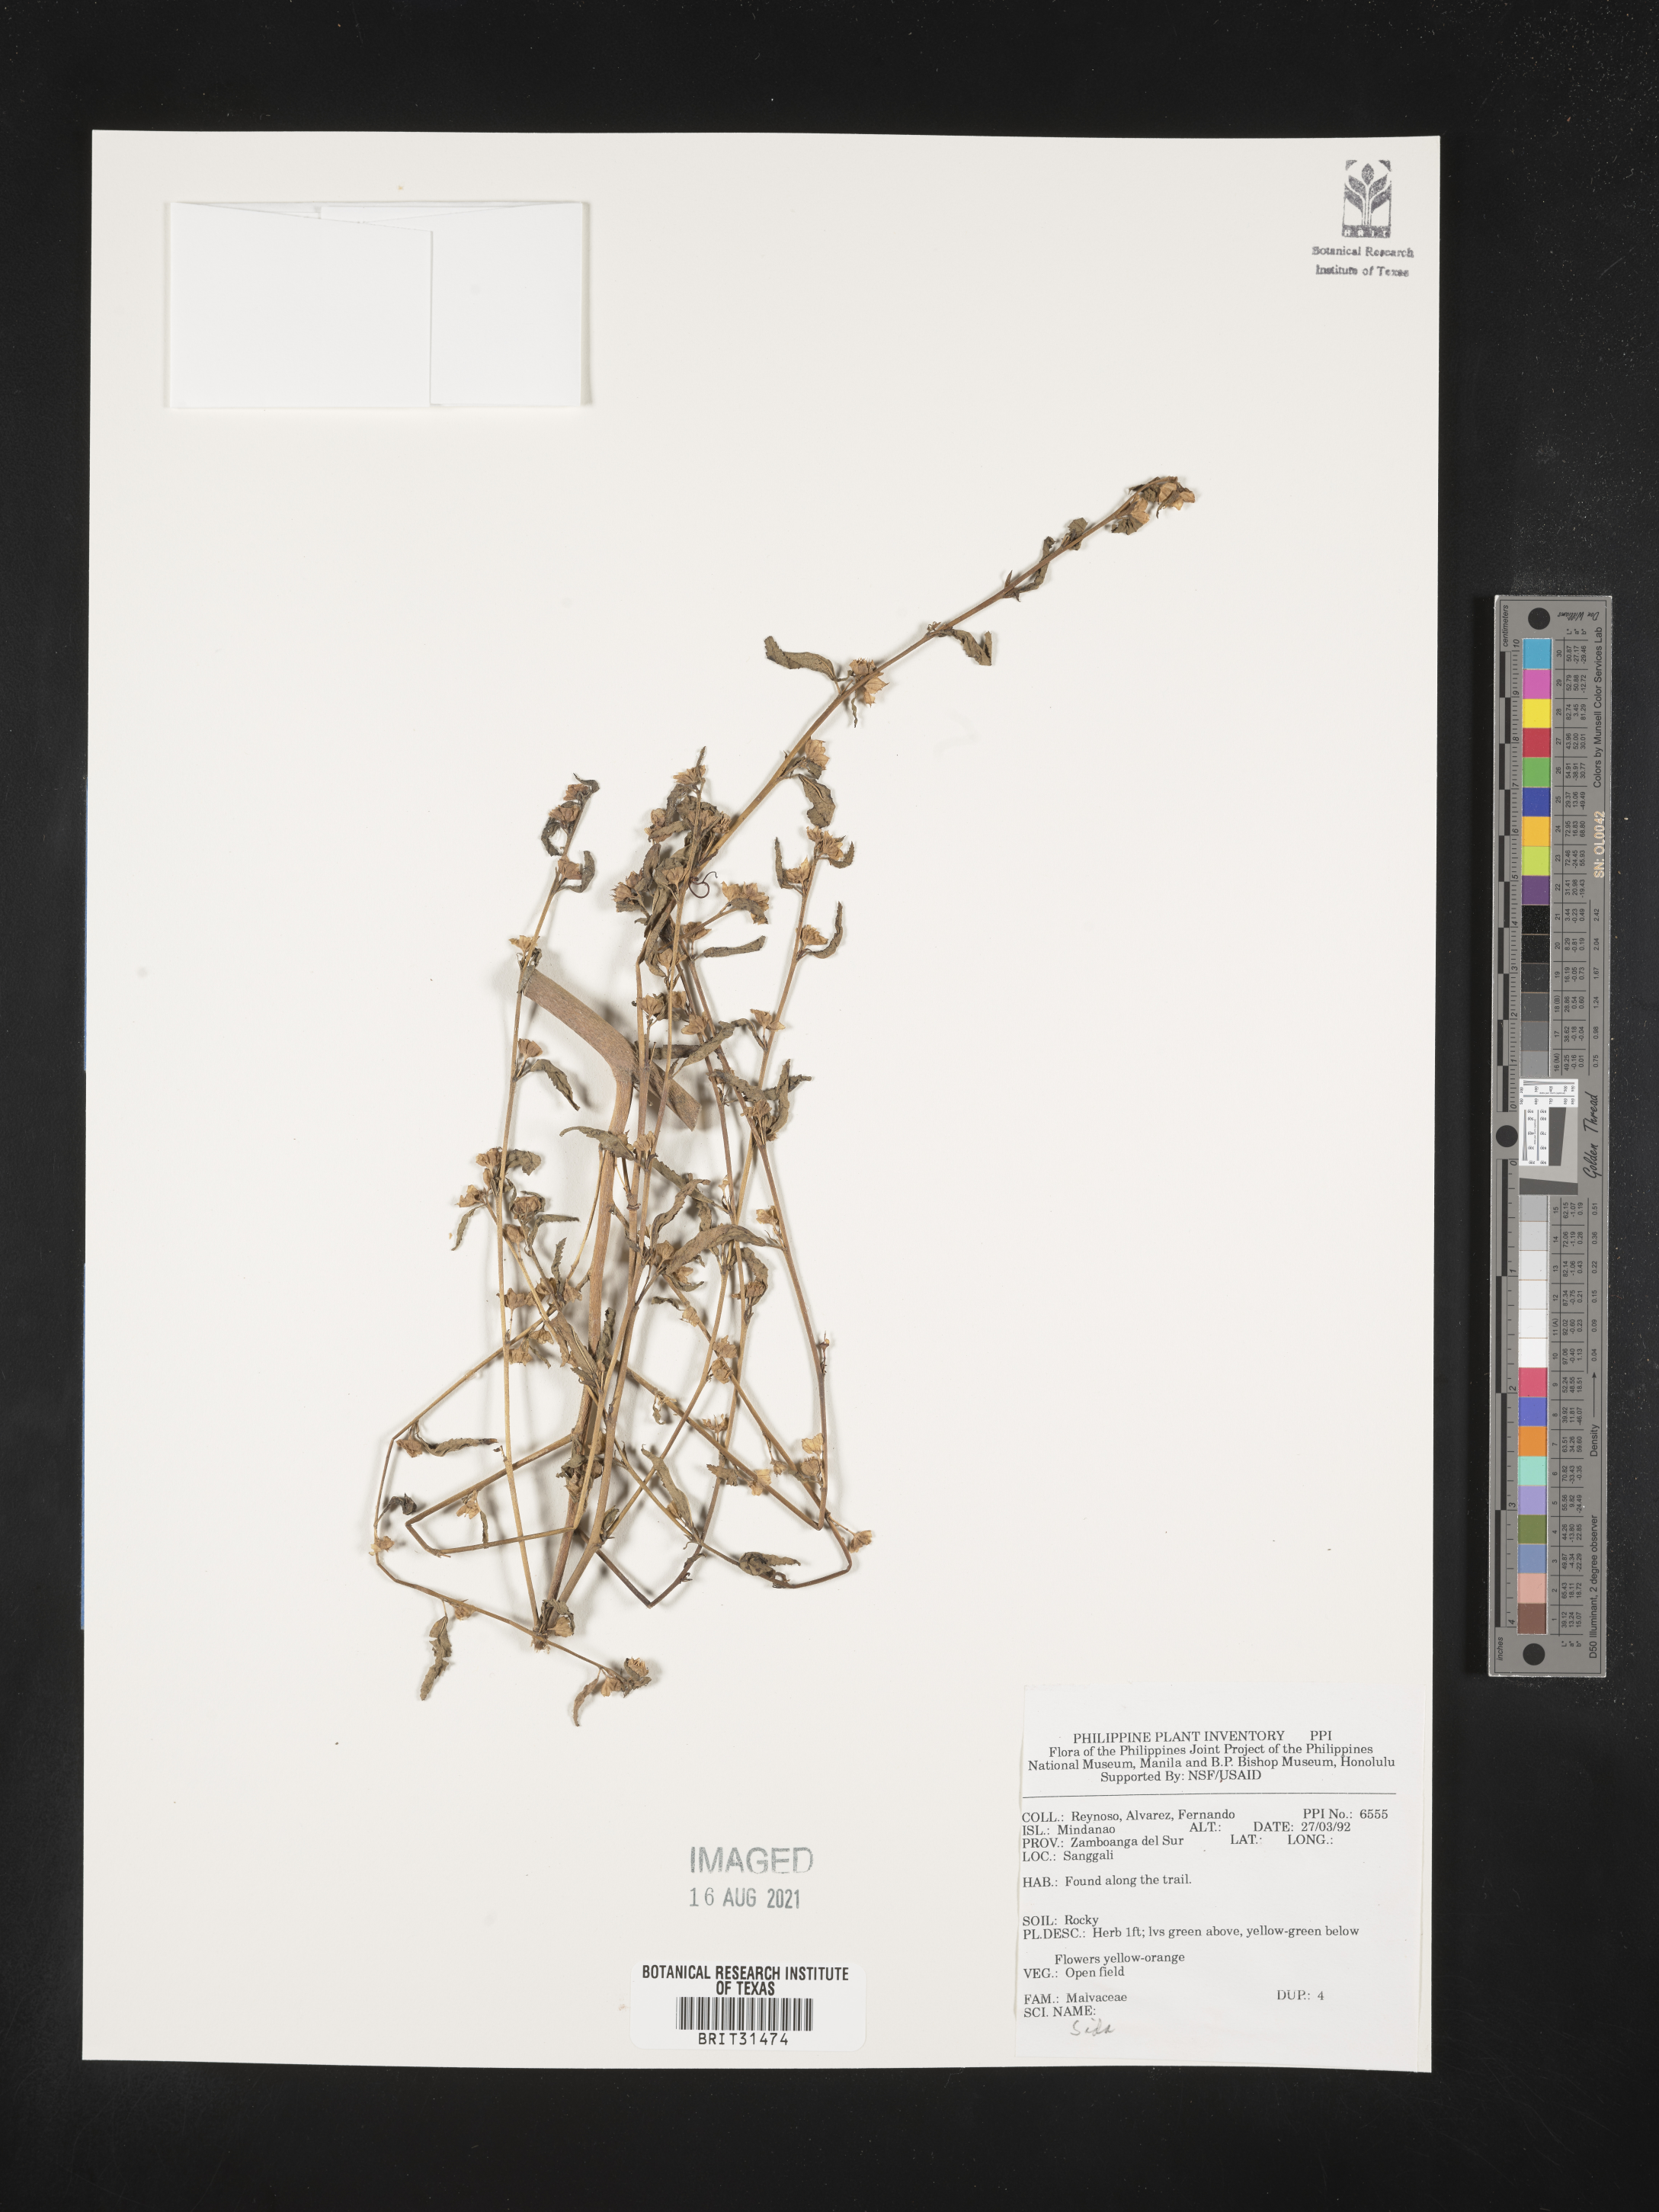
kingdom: Plantae
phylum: Tracheophyta
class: Magnoliopsida
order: Malvales
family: Malvaceae
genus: Sida
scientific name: Sida
